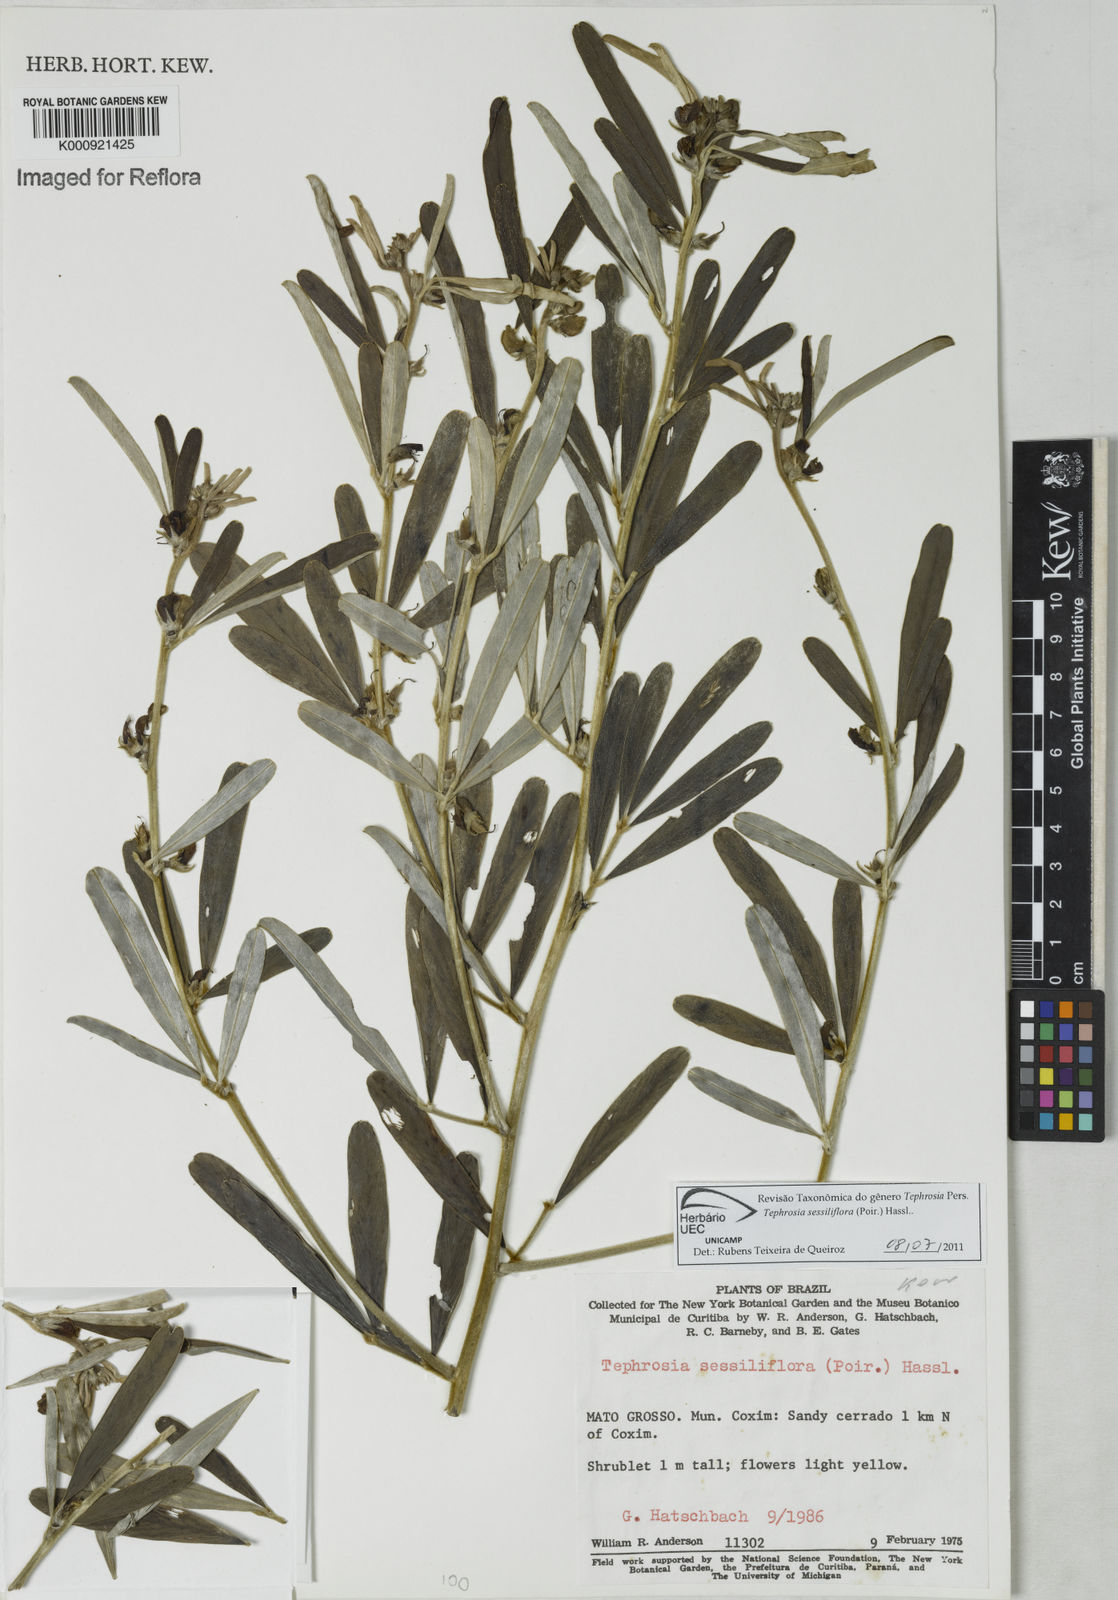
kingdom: Plantae
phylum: Tracheophyta
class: Magnoliopsida
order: Fabales
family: Fabaceae
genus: Tephrosia
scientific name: Tephrosia sessiliflora
